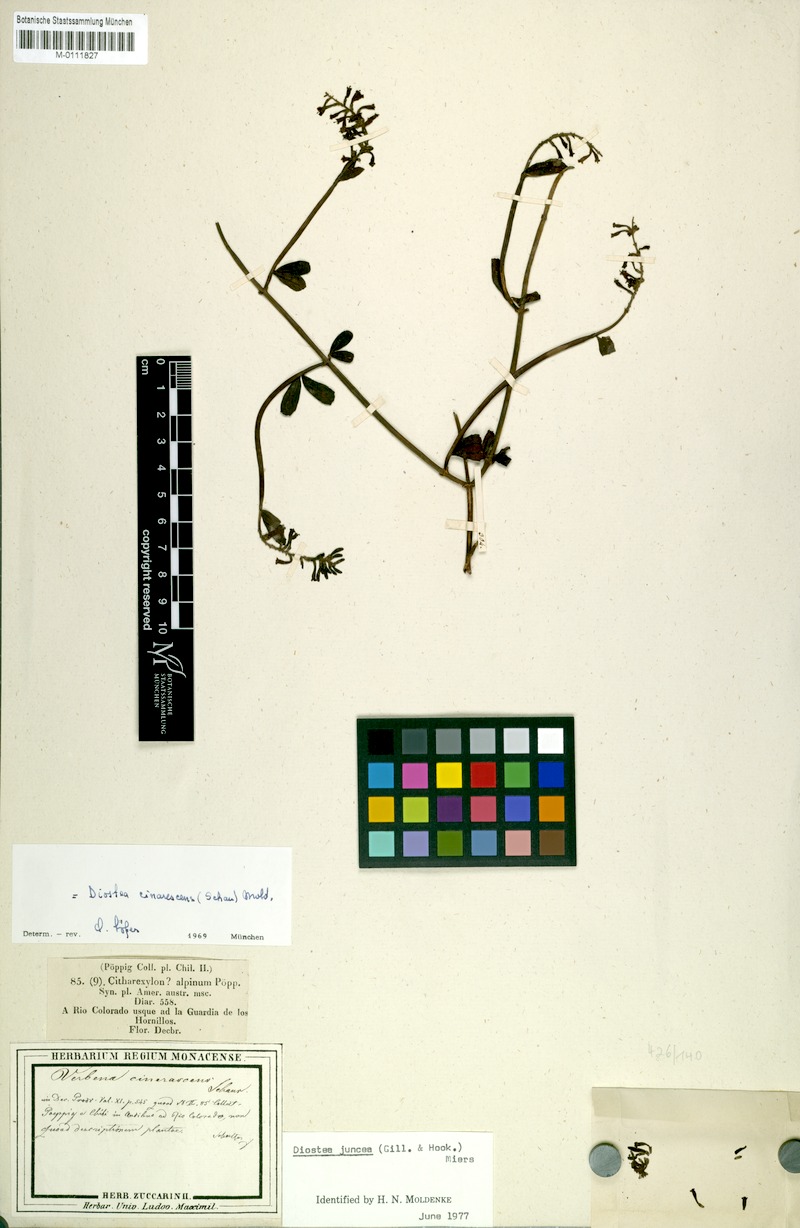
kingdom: Plantae
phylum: Tracheophyta
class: Magnoliopsida
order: Lamiales
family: Verbenaceae
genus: Mulguraea
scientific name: Mulguraea cinerascens
